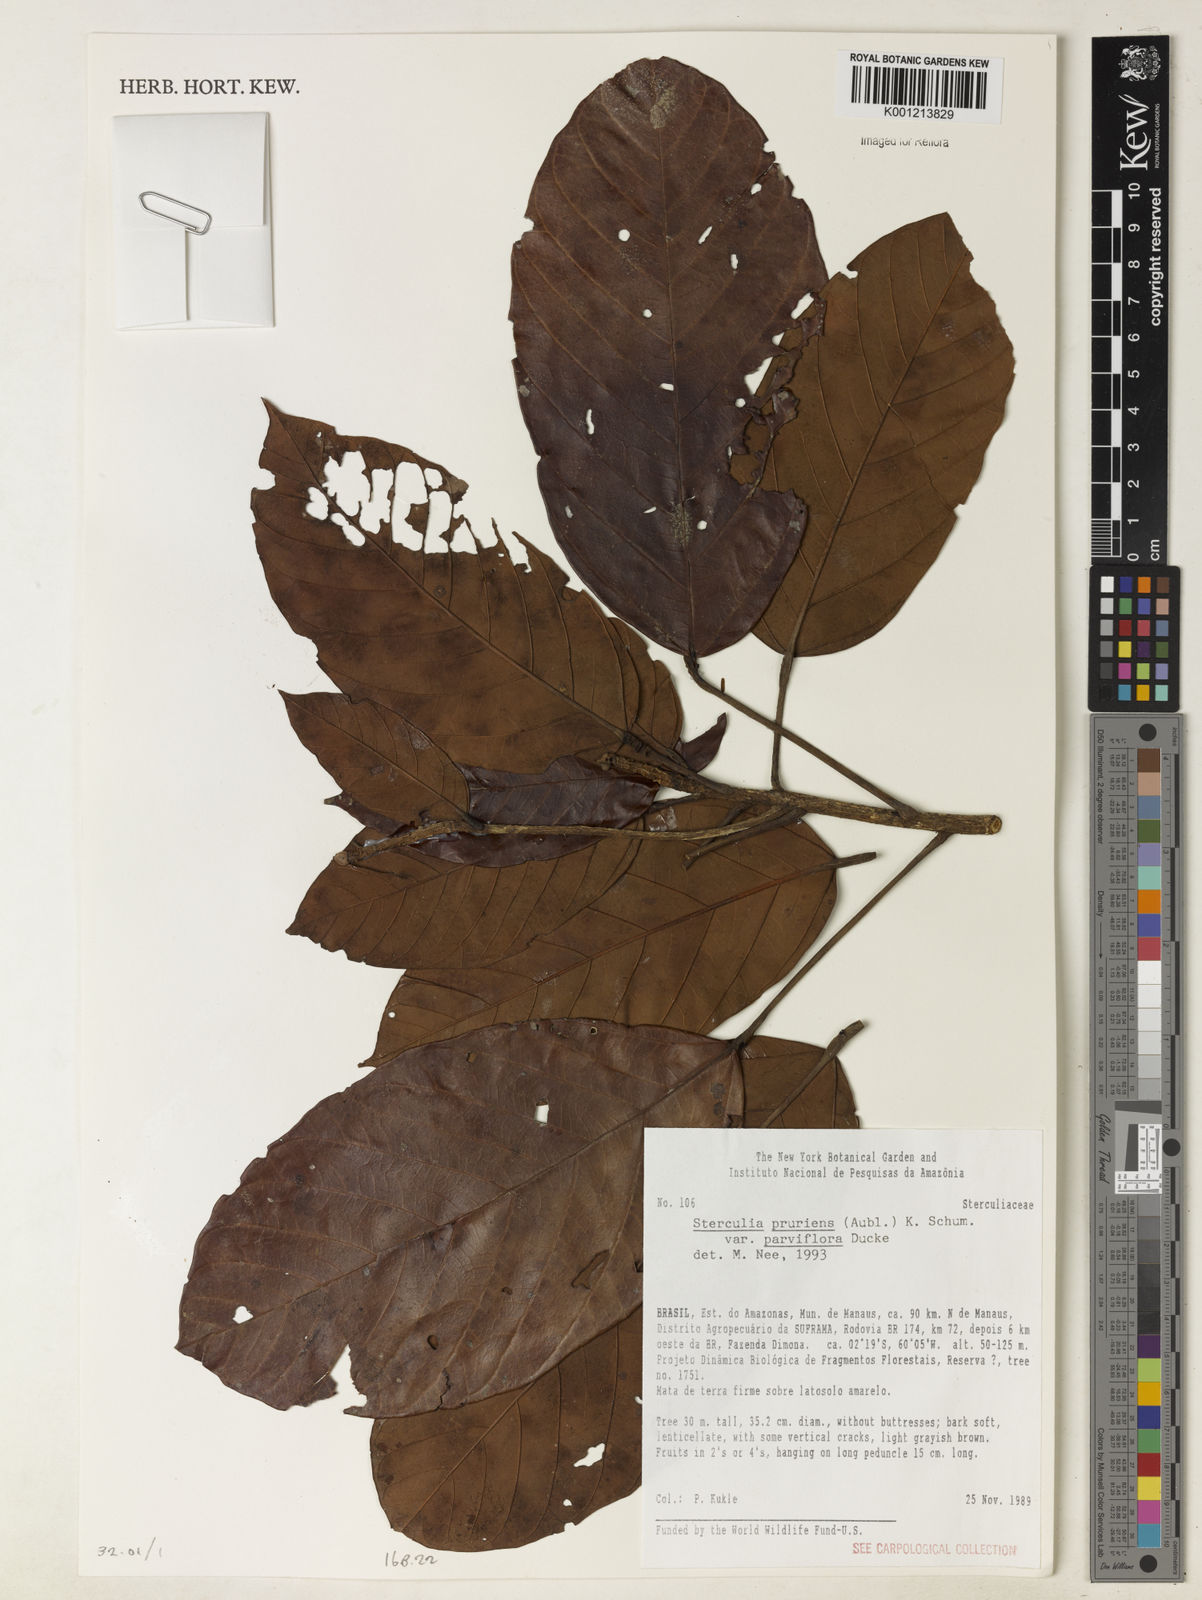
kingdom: Plantae
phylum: Tracheophyta
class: Magnoliopsida
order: Malvales
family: Malvaceae
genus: Sterculia
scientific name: Sterculia pruriens
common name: Grand mahot
